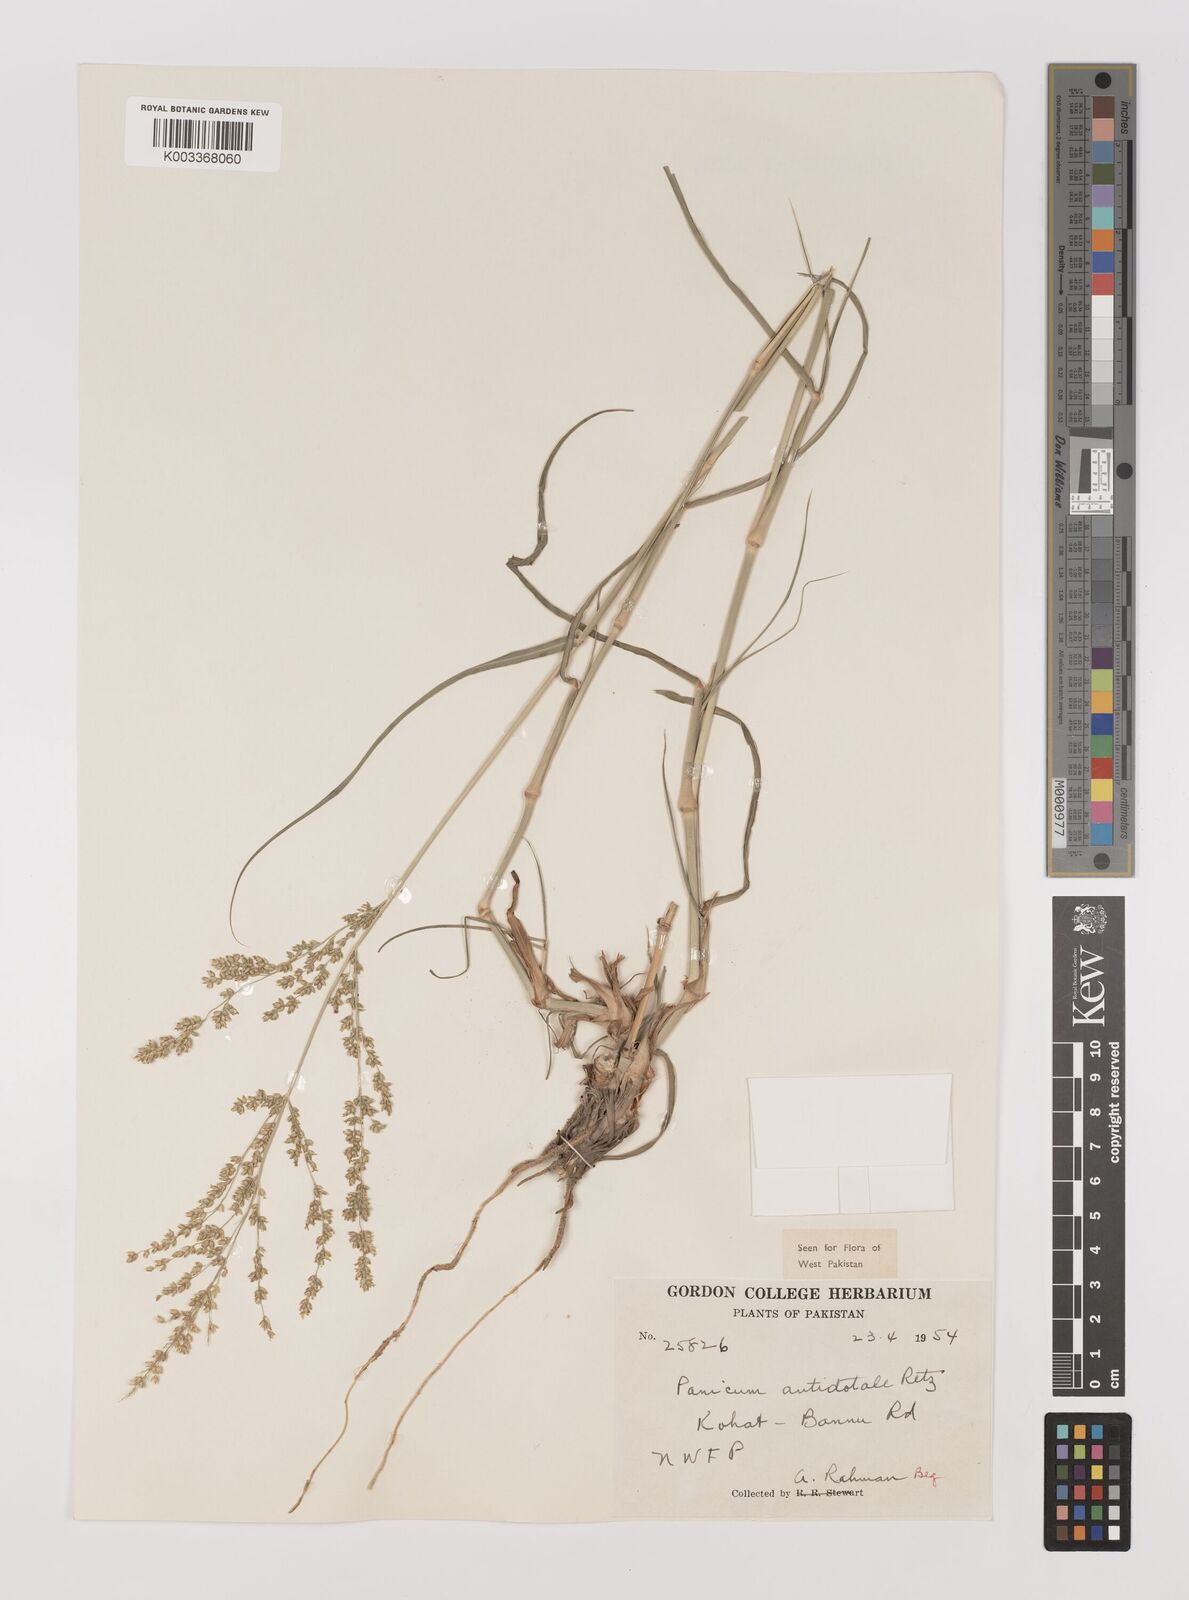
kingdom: Plantae
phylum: Tracheophyta
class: Liliopsida
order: Poales
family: Poaceae
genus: Panicum
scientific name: Panicum antidotale
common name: Blue panicum
